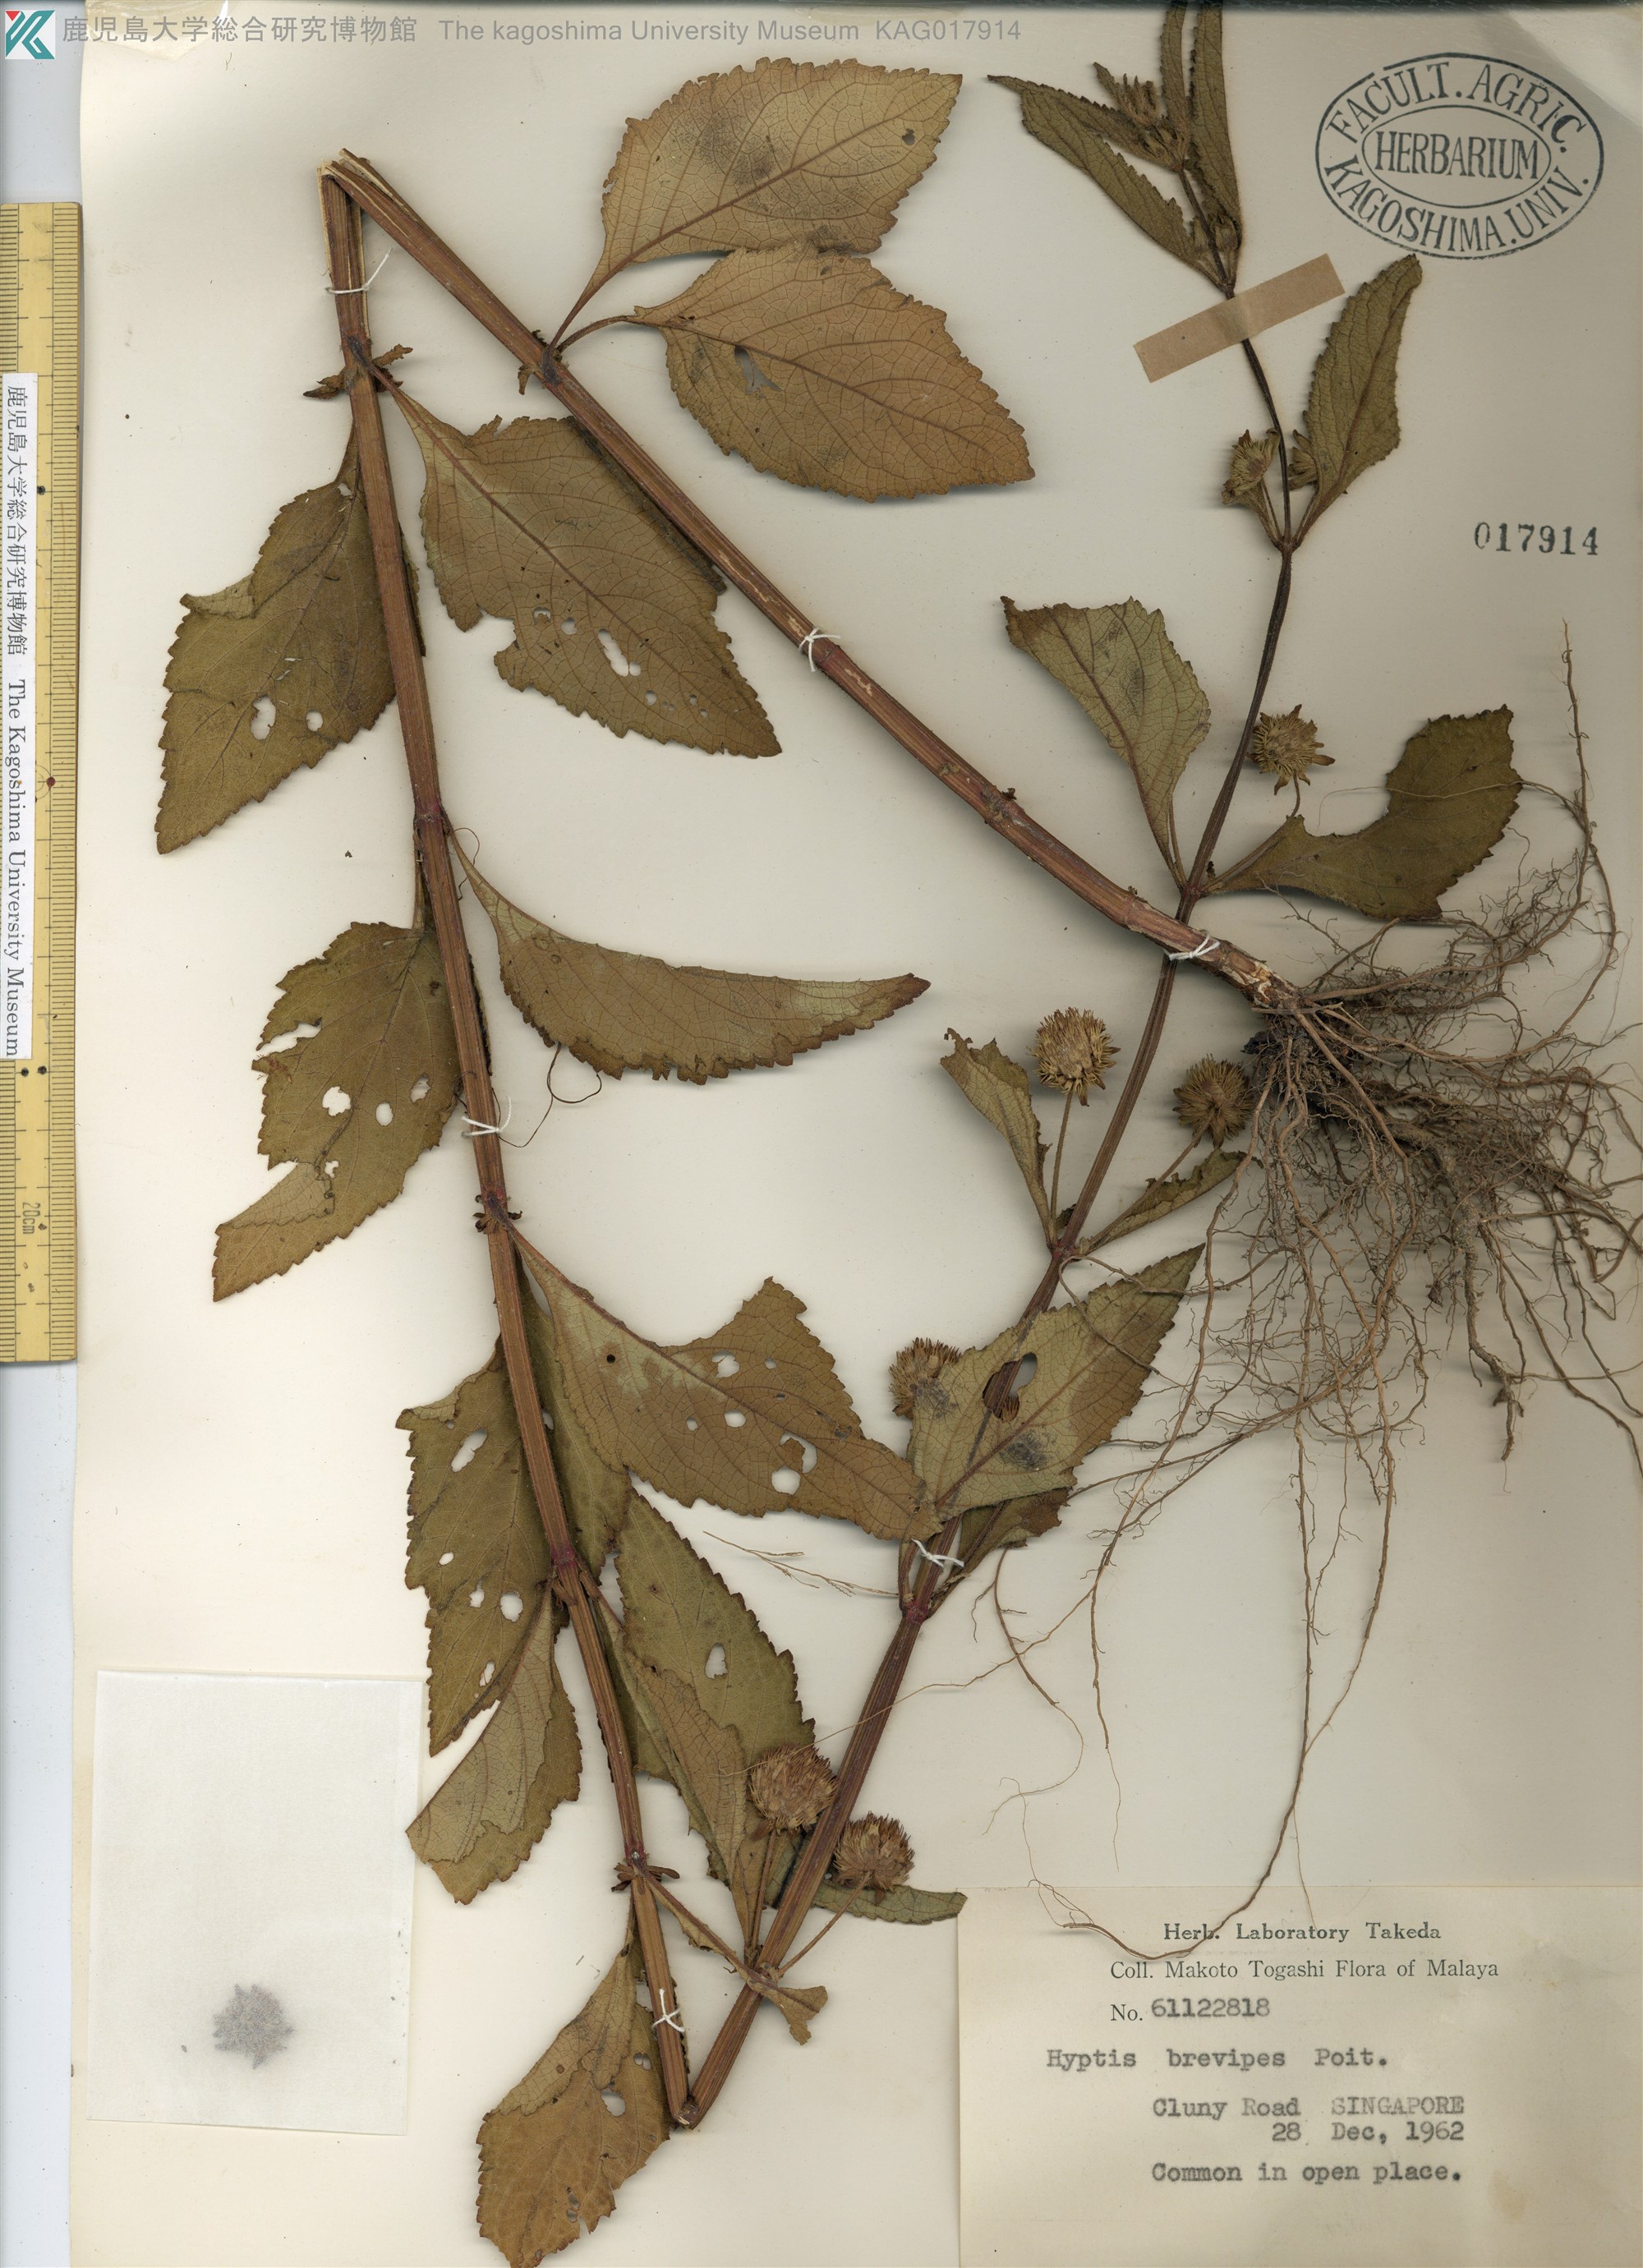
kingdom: Plantae
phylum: Tracheophyta
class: Magnoliopsida
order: Lamiales
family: Lamiaceae
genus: Hyptis
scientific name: Hyptis brevipes
